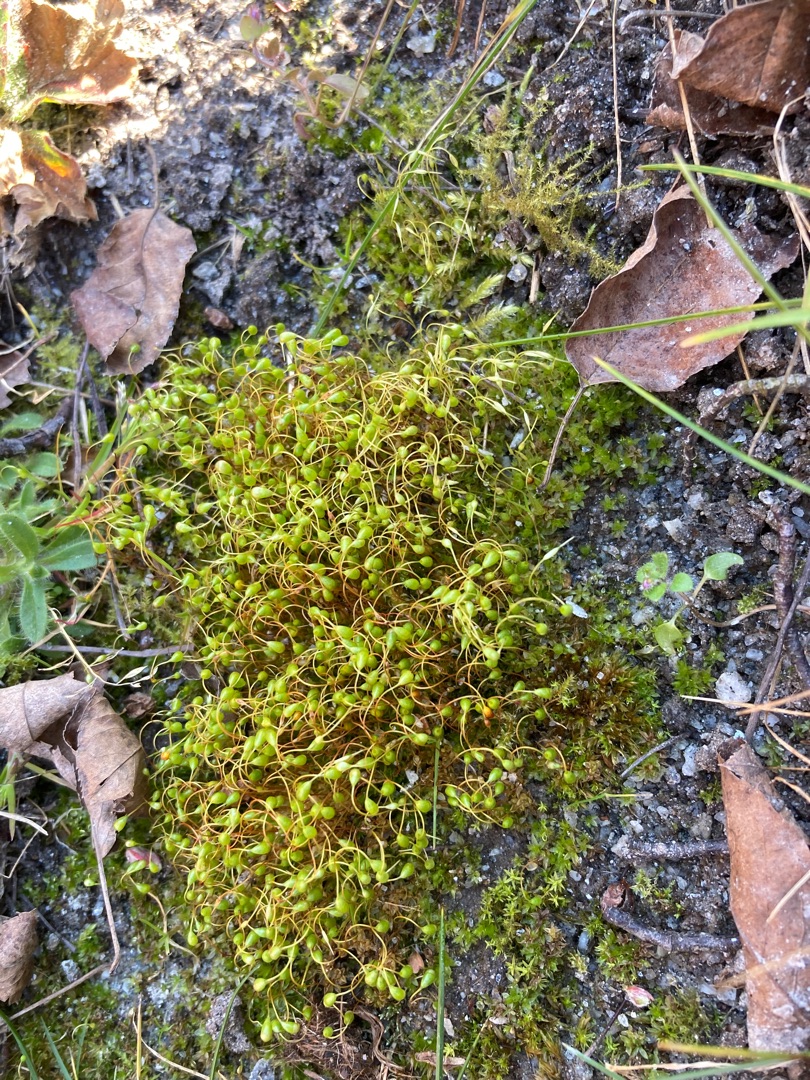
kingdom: Plantae
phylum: Bryophyta
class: Bryopsida
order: Funariales
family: Funariaceae
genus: Funaria
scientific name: Funaria hygrometrica
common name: Almindelig snobørste
